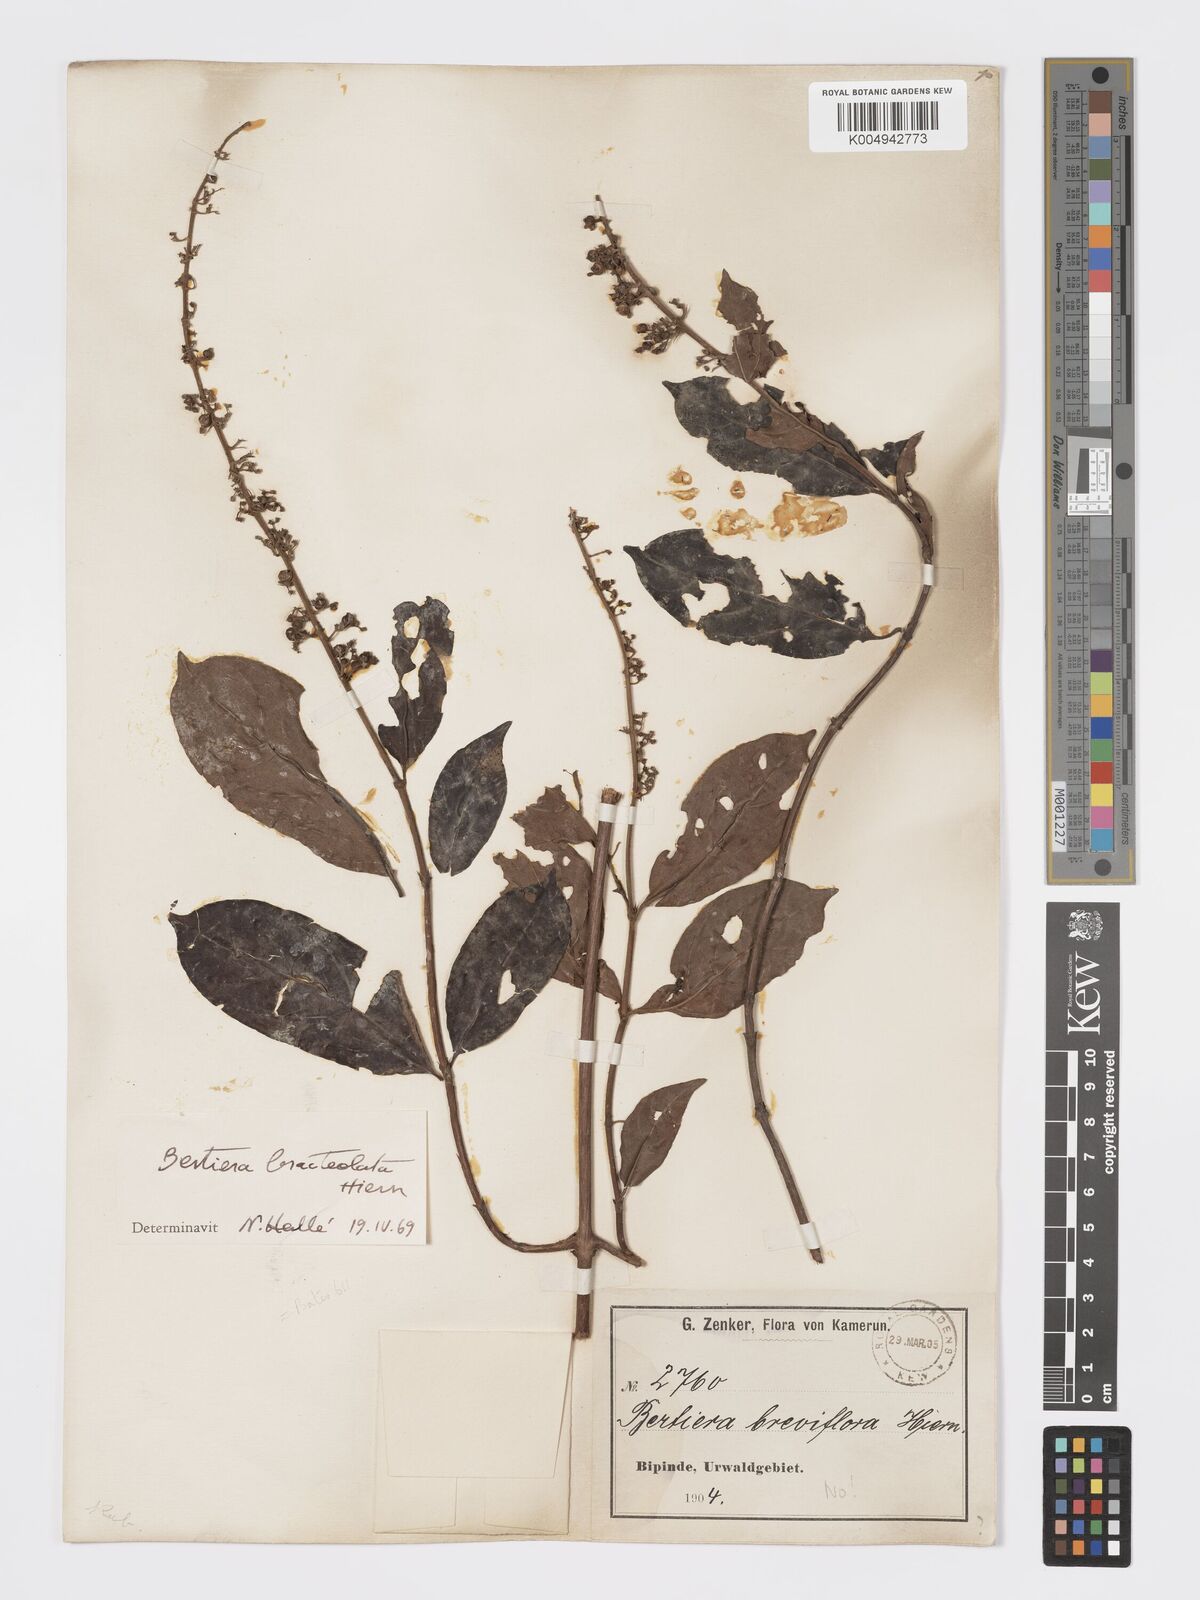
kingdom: Plantae
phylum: Tracheophyta
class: Magnoliopsida
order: Gentianales
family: Rubiaceae
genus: Bertiera
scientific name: Bertiera bracteolata
